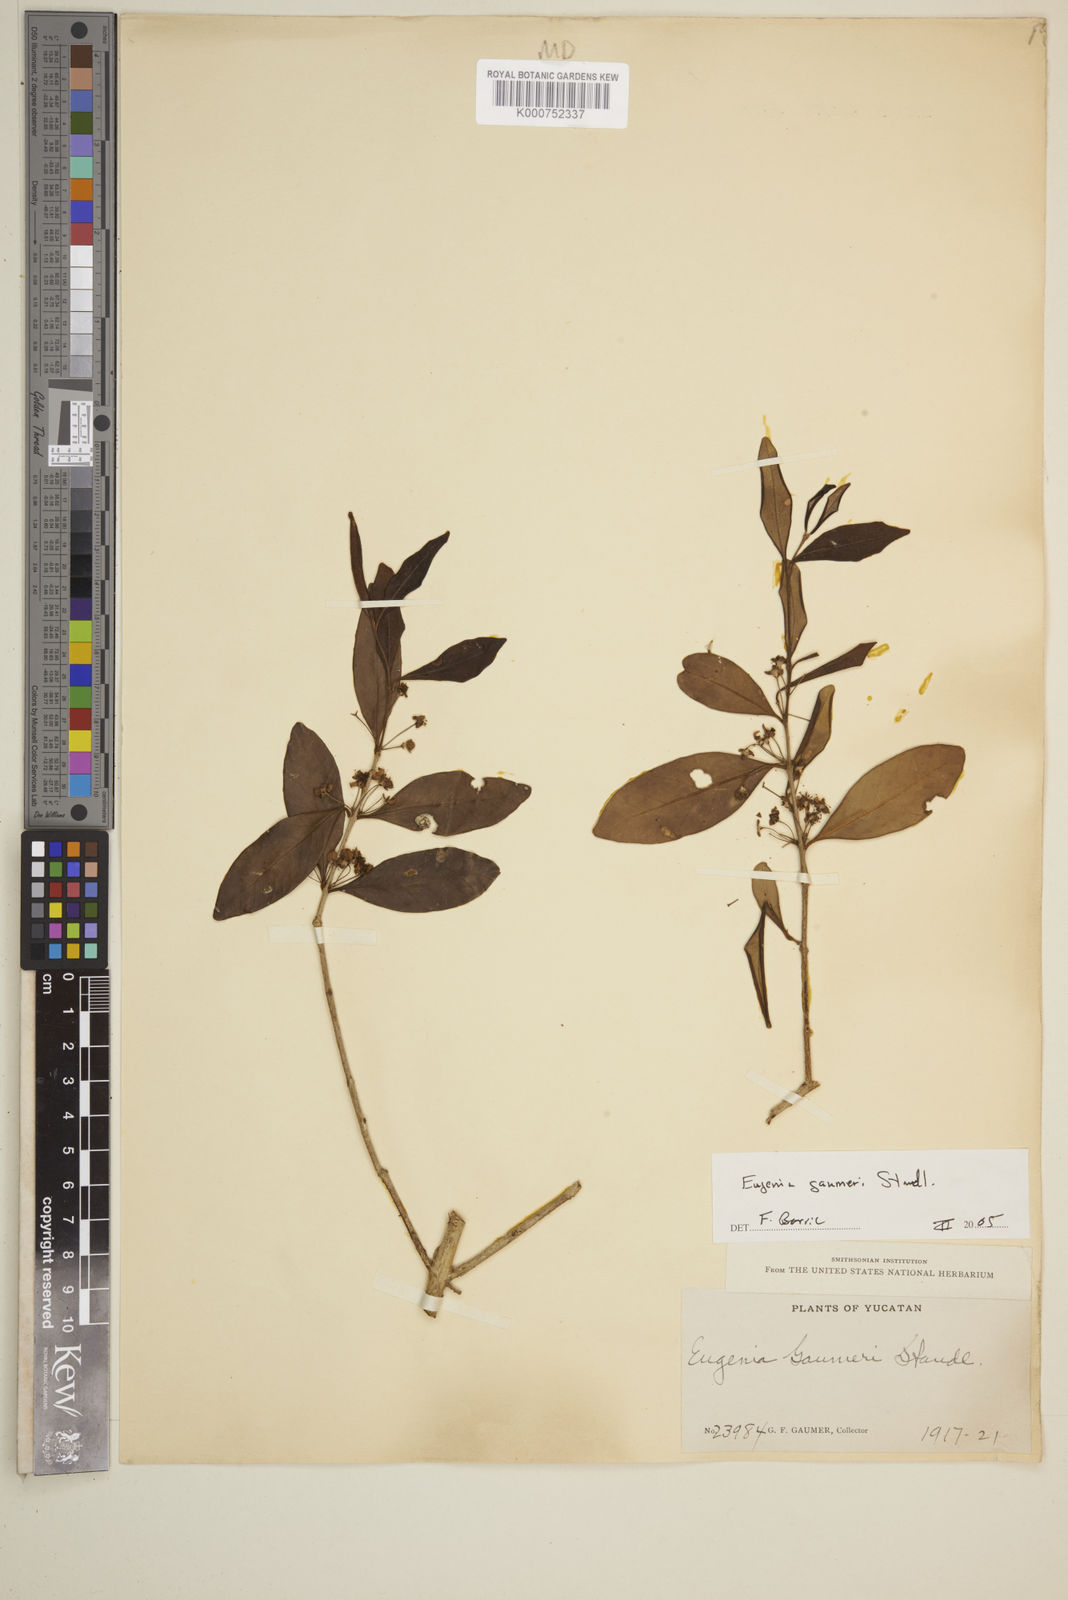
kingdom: Plantae
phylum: Tracheophyta
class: Magnoliopsida
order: Myrtales
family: Myrtaceae
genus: Eugenia
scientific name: Eugenia gaumeri
